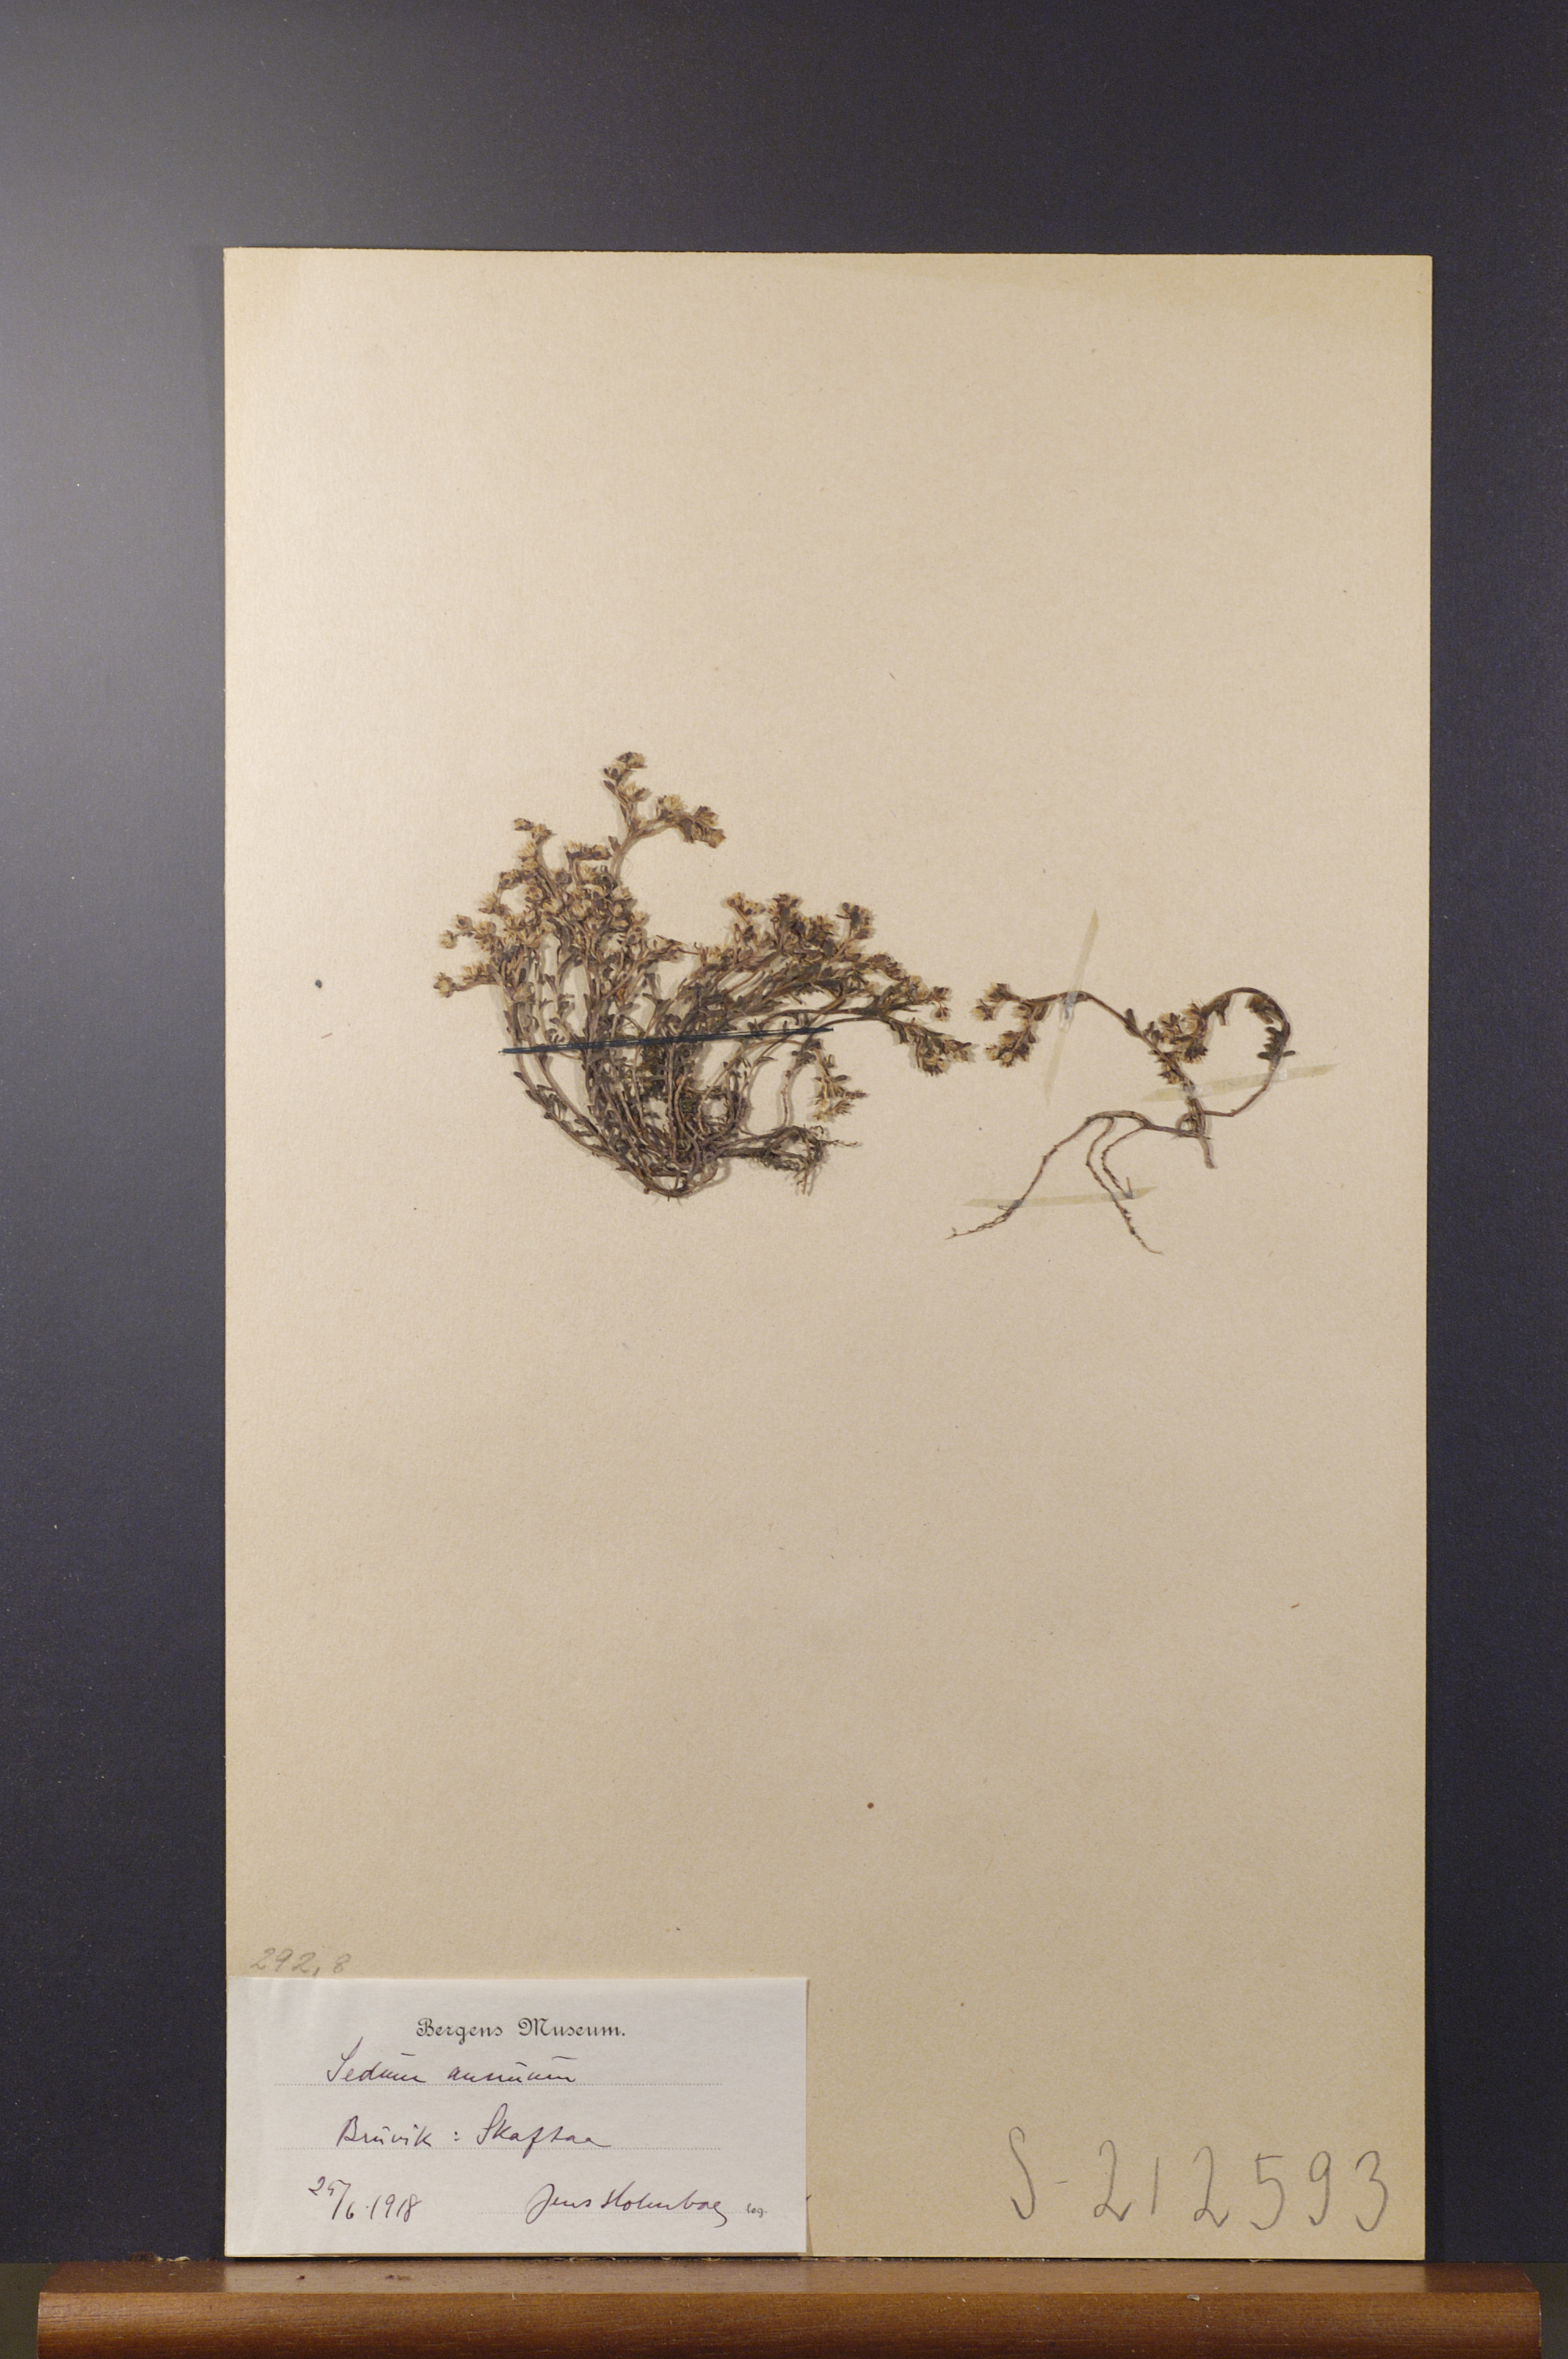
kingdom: Plantae
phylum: Tracheophyta
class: Magnoliopsida
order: Saxifragales
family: Crassulaceae
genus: Sedum
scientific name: Sedum annuum
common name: Annual stonecrop
